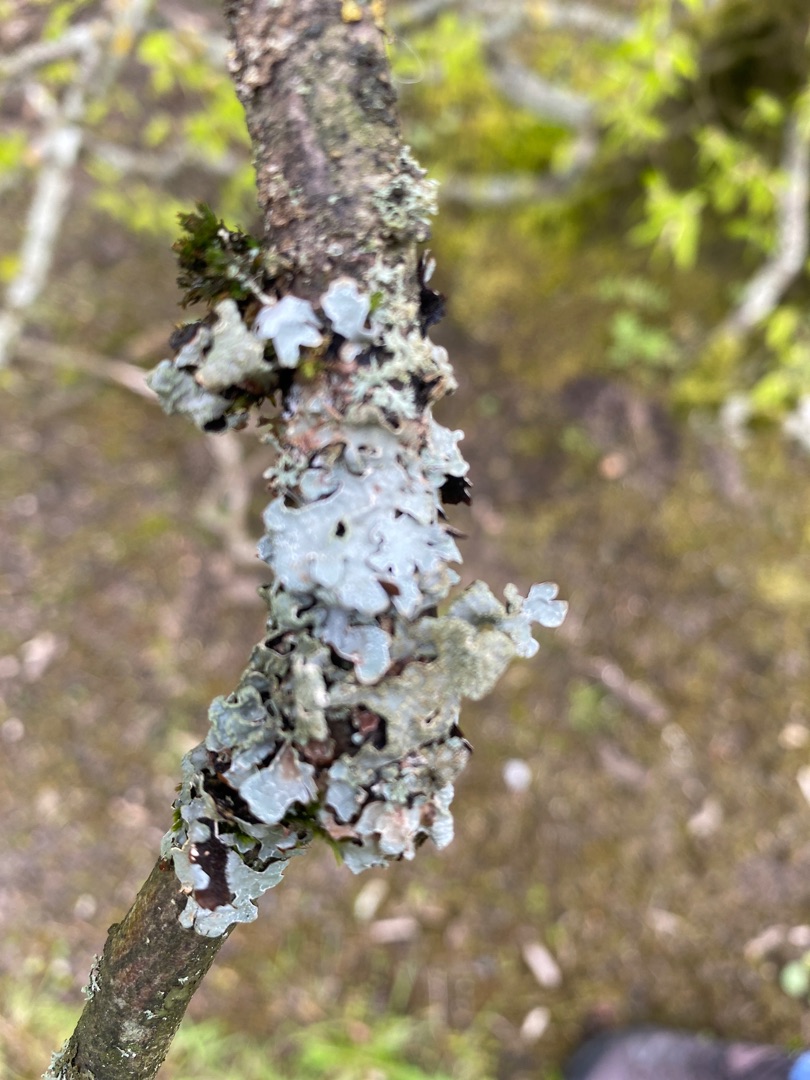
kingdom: Fungi
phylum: Ascomycota
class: Lecanoromycetes
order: Lecanorales
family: Parmeliaceae
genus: Parmelia
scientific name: Parmelia sulcata
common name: Rynket skållav
